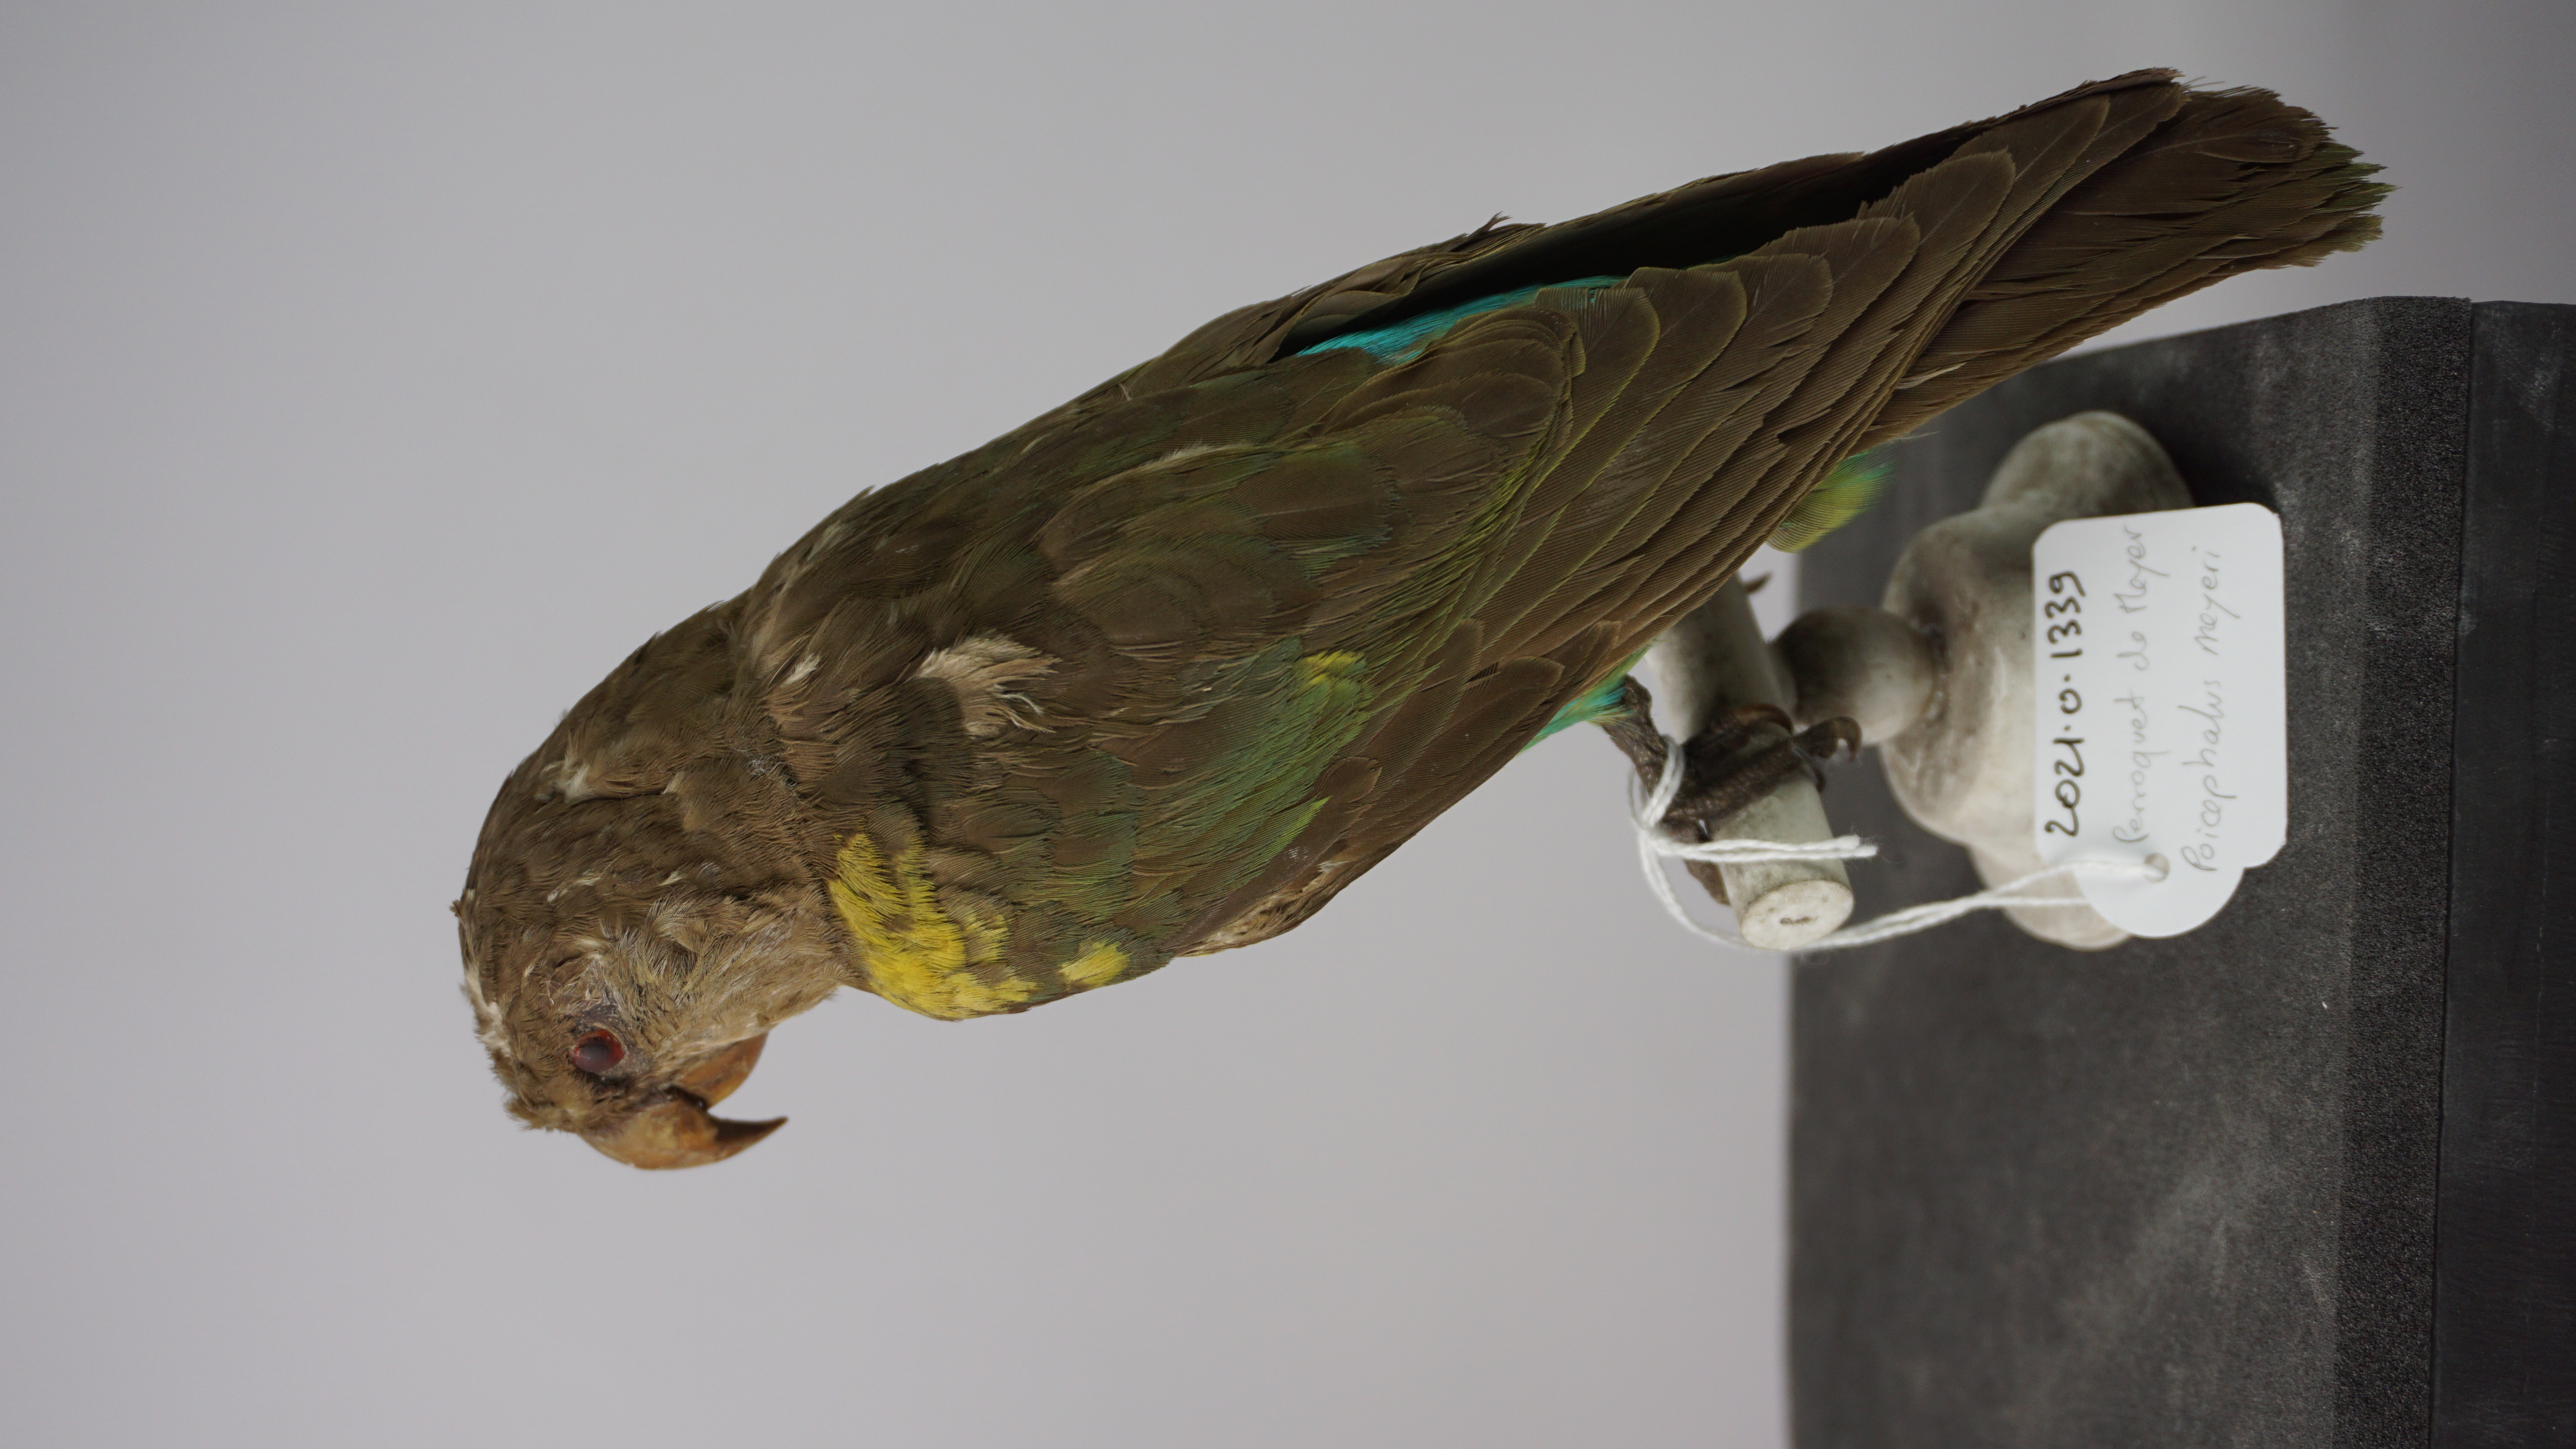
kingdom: Animalia
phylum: Chordata
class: Aves
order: Psittaciformes
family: Psittacidae
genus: Poicephalus
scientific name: Poicephalus meyeri
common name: Meyer's parrot
